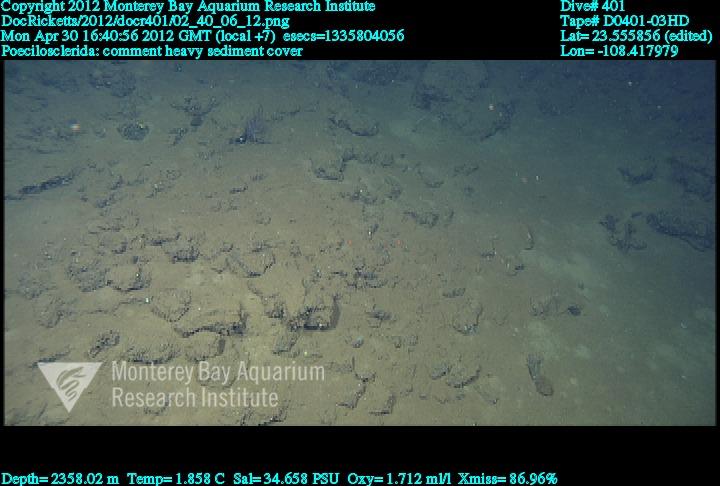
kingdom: Animalia
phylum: Porifera
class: Demospongiae
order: Poecilosclerida
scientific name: Poecilosclerida
